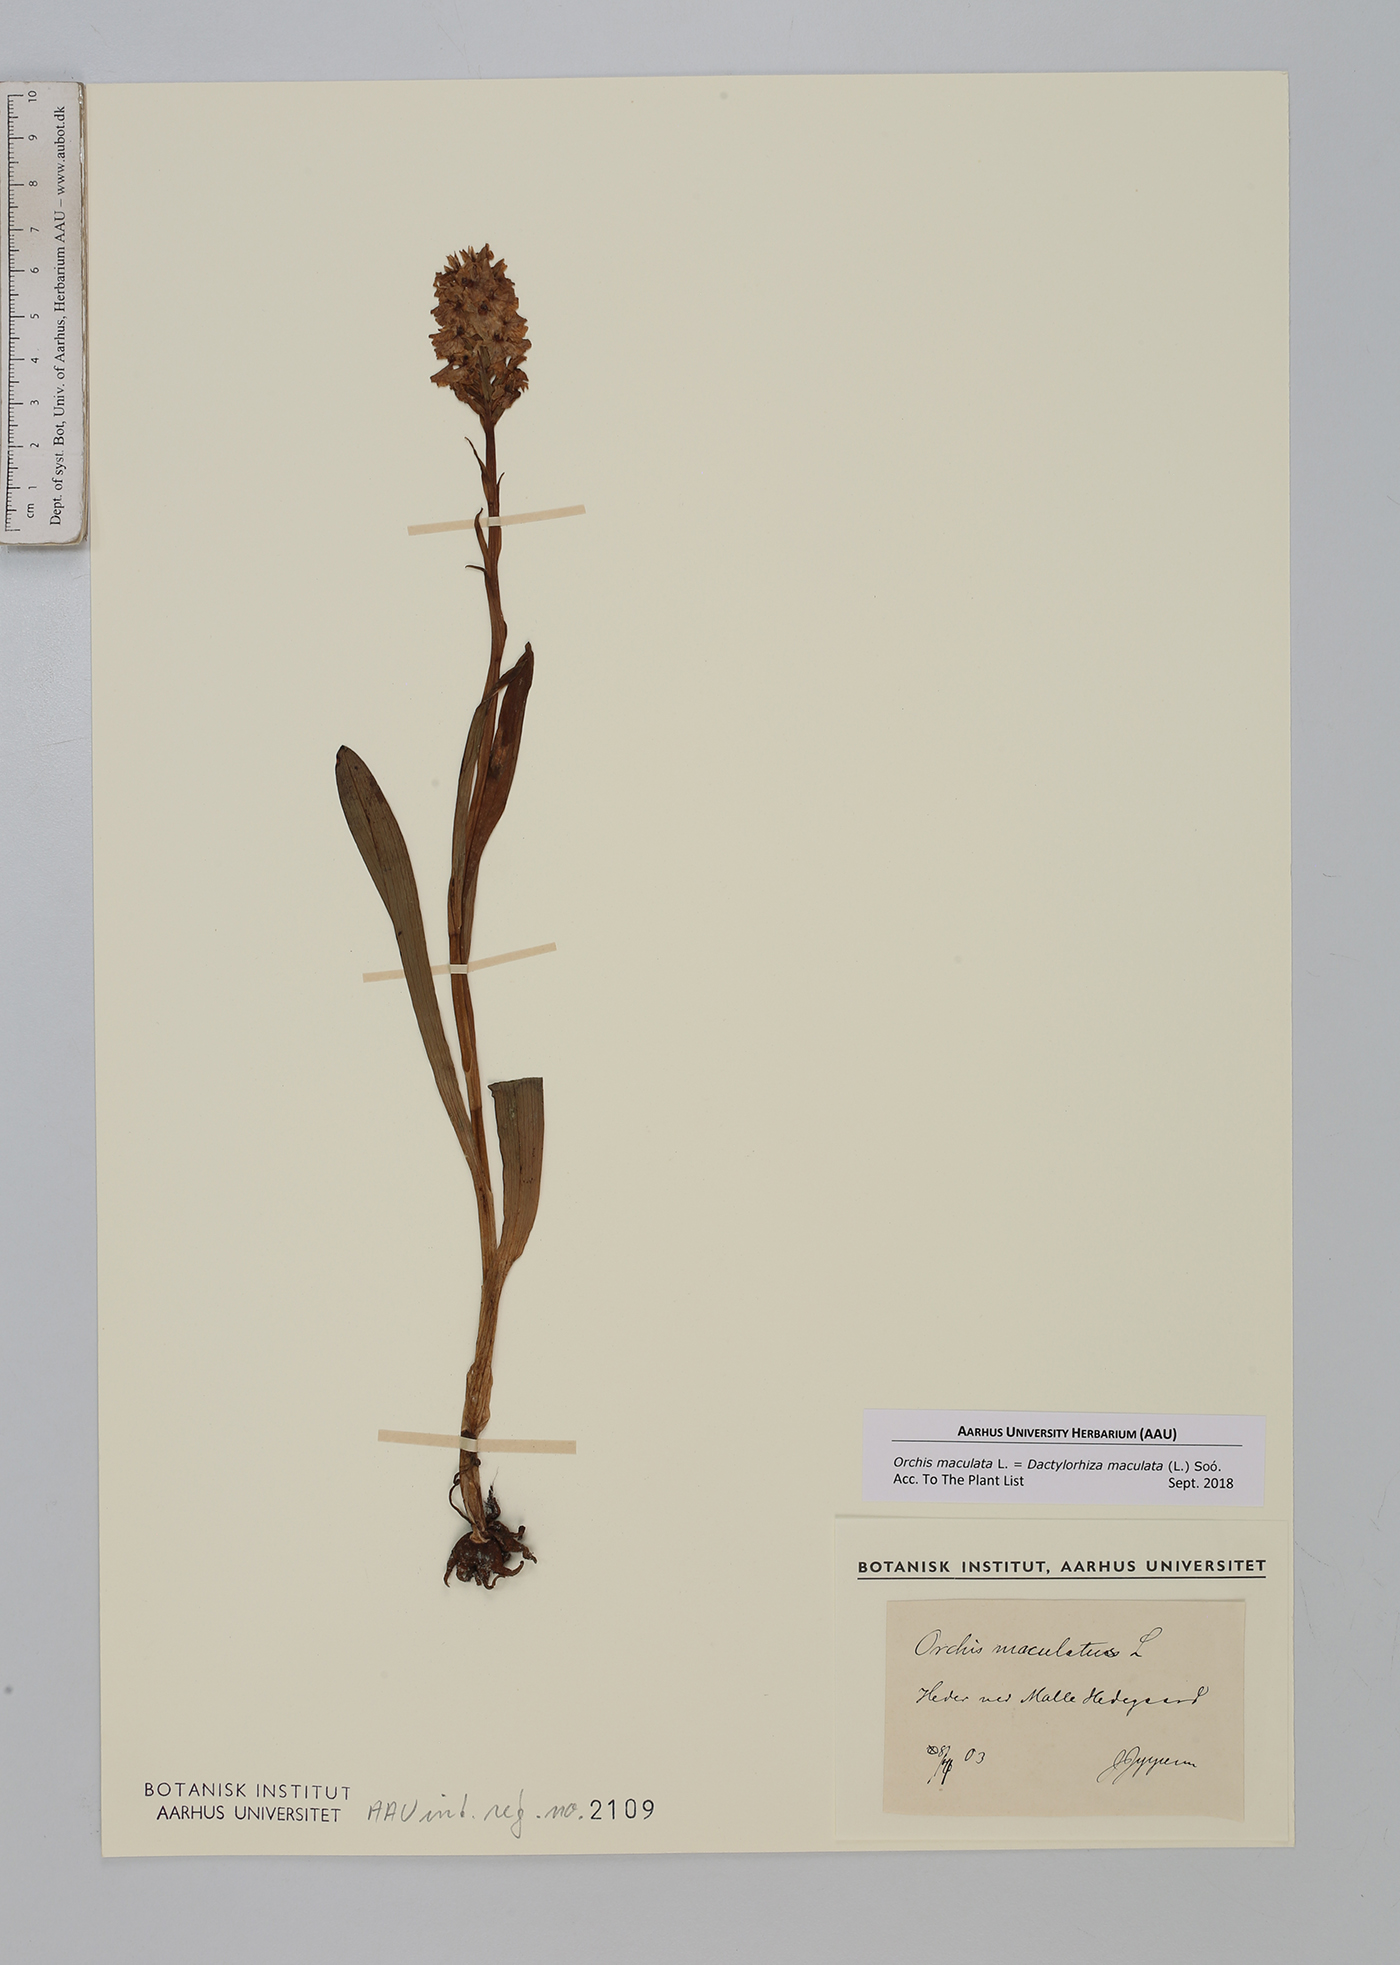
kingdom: Plantae
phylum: Tracheophyta
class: Liliopsida
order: Asparagales
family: Orchidaceae
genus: Dactylorhiza
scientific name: Dactylorhiza maculata
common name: Heath spotted-orchid
